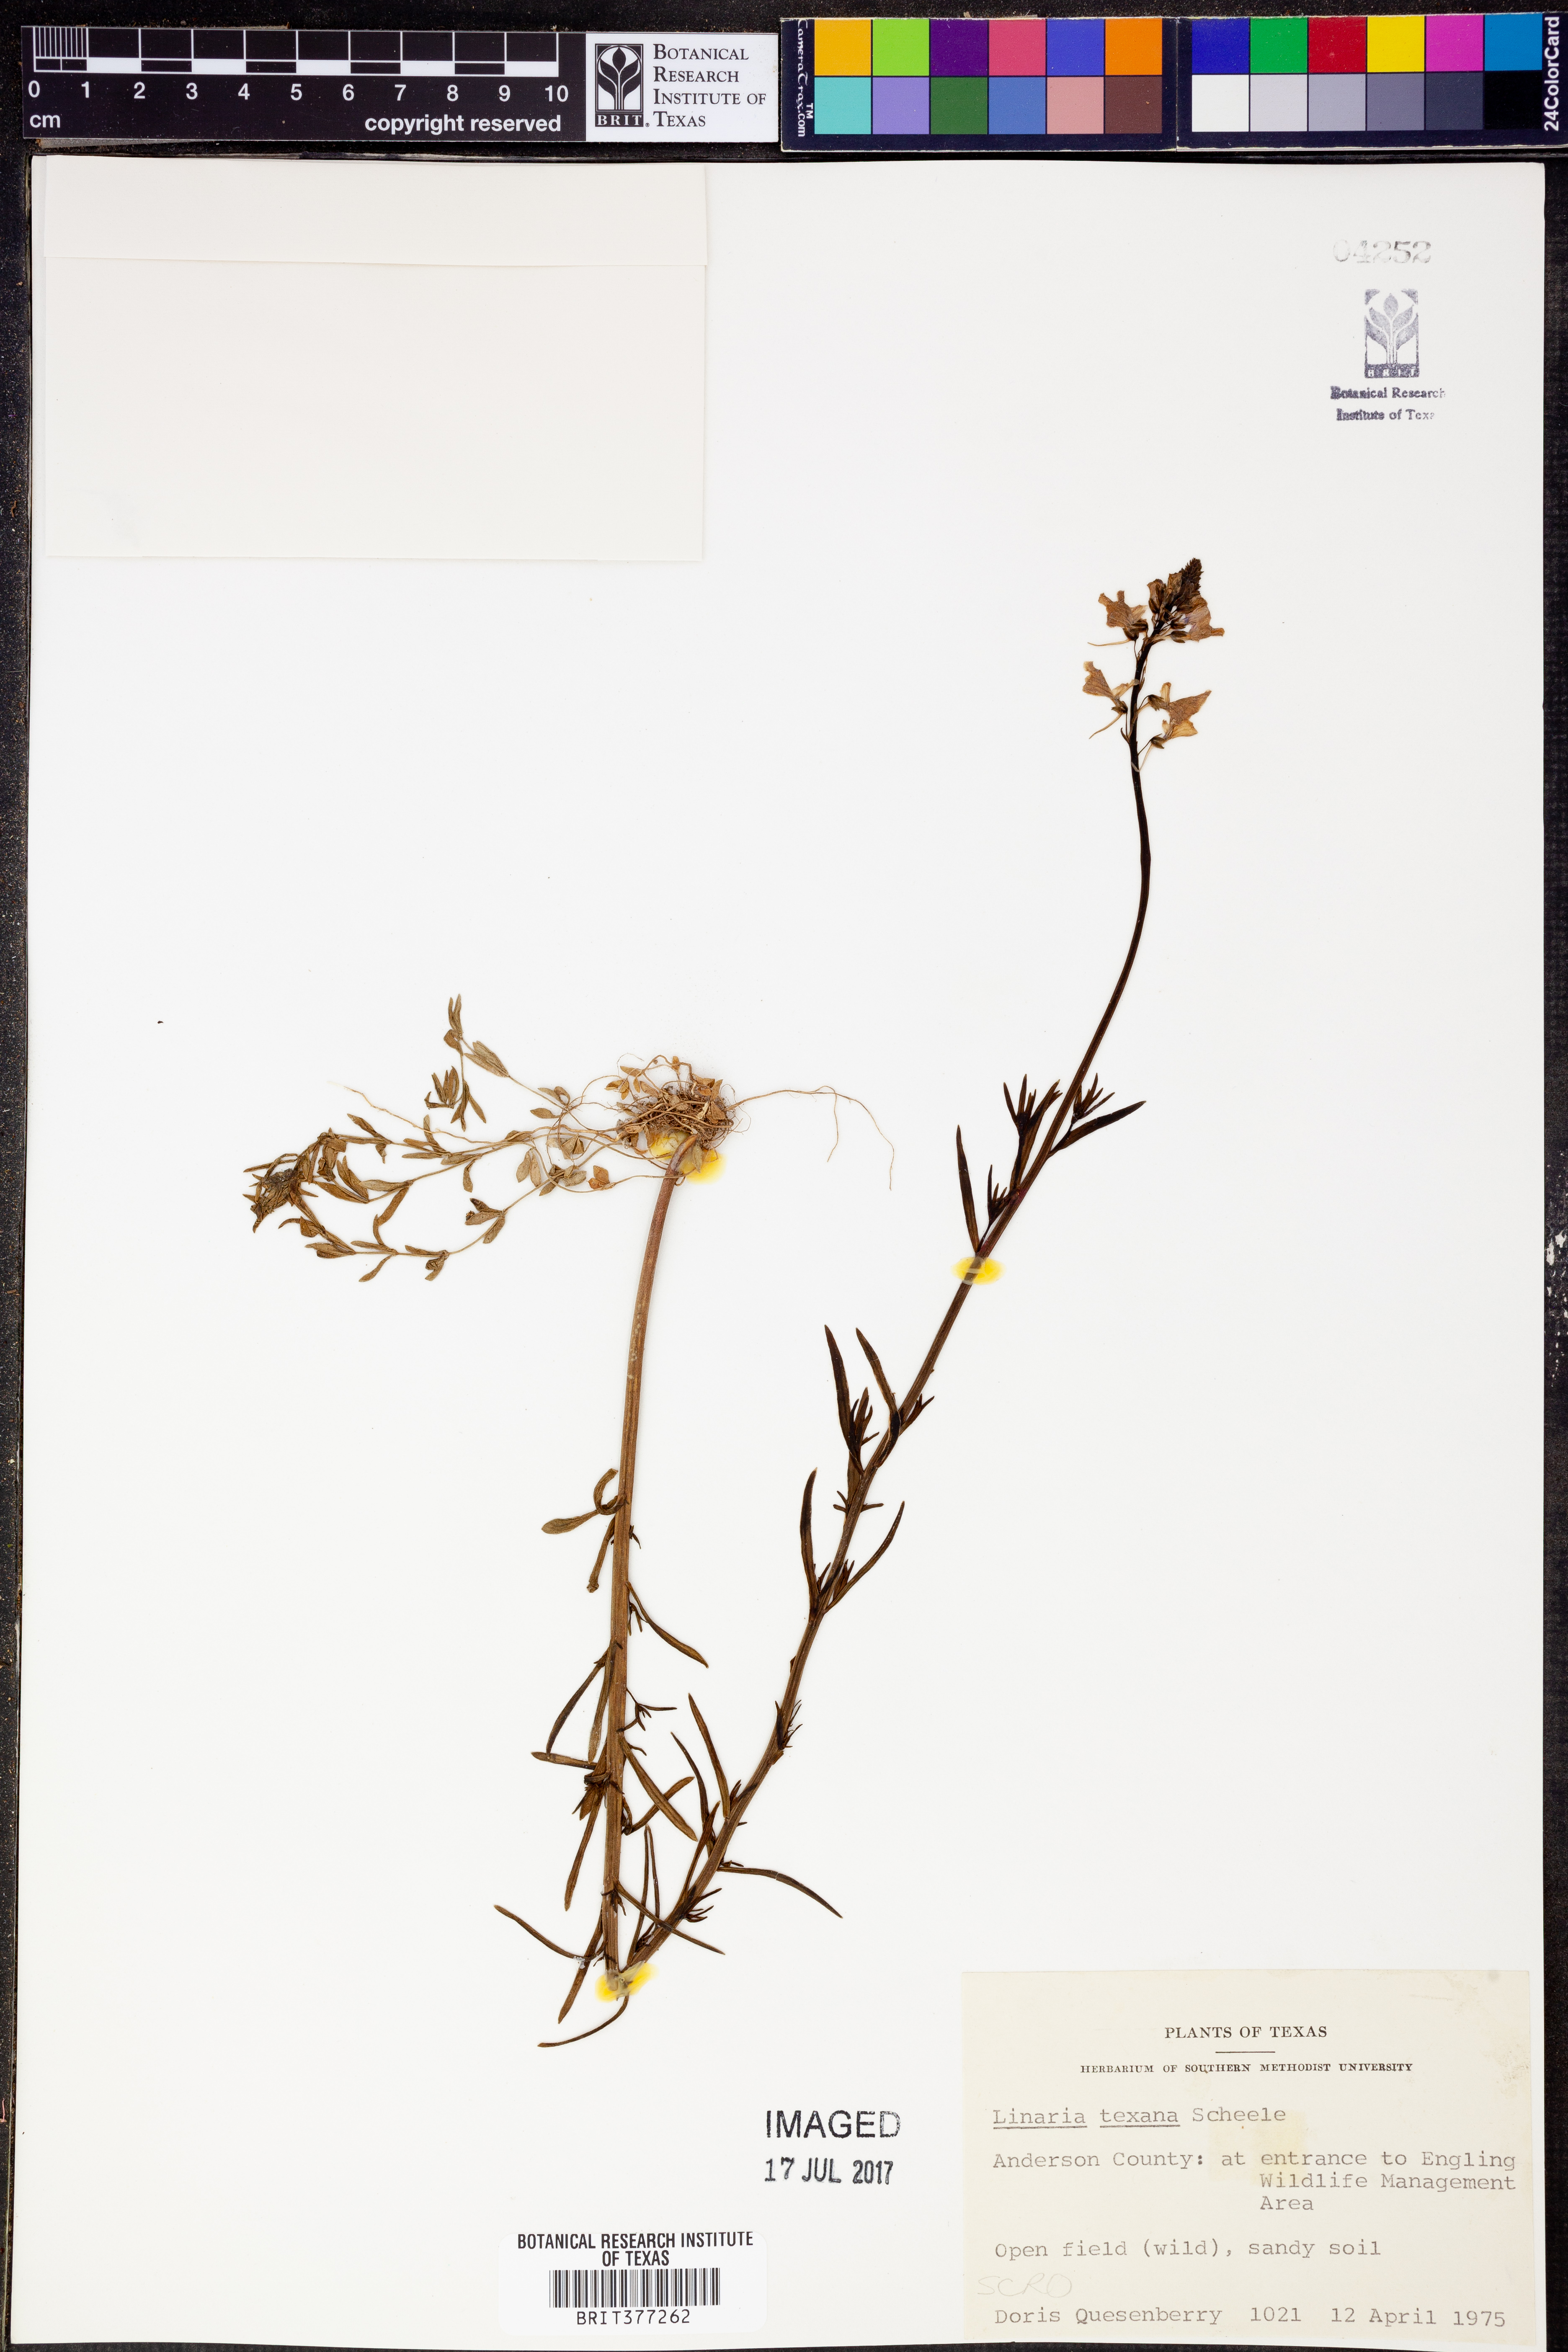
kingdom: Plantae
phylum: Tracheophyta
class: Magnoliopsida
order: Lamiales
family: Plantaginaceae
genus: Nuttallanthus
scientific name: Nuttallanthus texanus
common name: Texas toadflax
